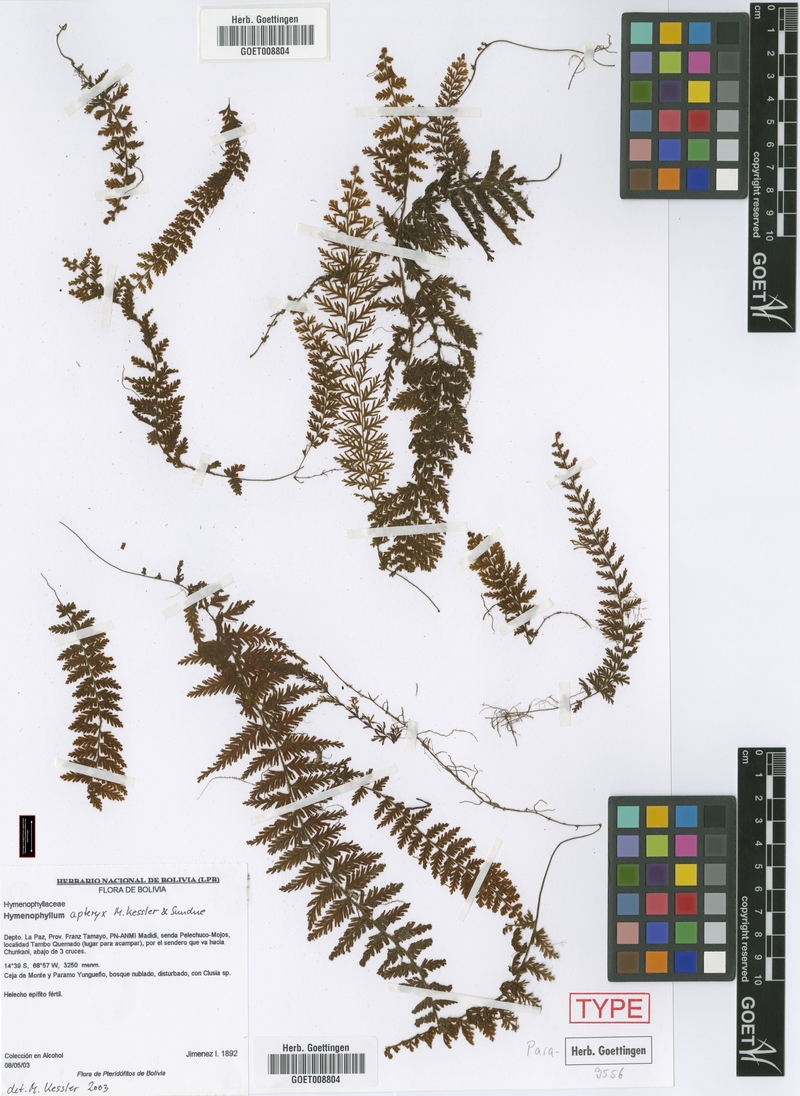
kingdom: Plantae
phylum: Tracheophyta
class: Polypodiopsida
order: Hymenophyllales
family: Hymenophyllaceae
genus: Hymenophyllum
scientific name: Hymenophyllum apteryx
